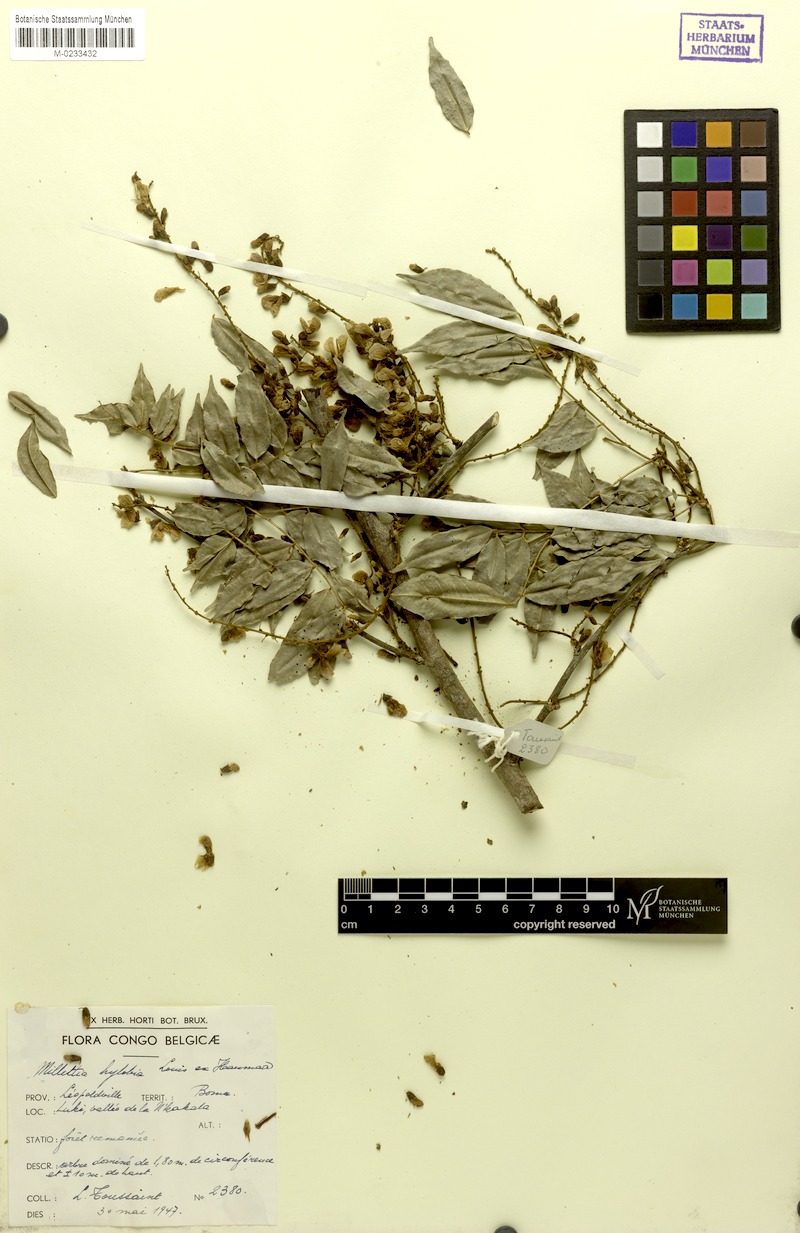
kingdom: Plantae
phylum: Tracheophyta
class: Magnoliopsida
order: Fabales
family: Fabaceae
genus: Millettia
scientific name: Millettia hylobia
